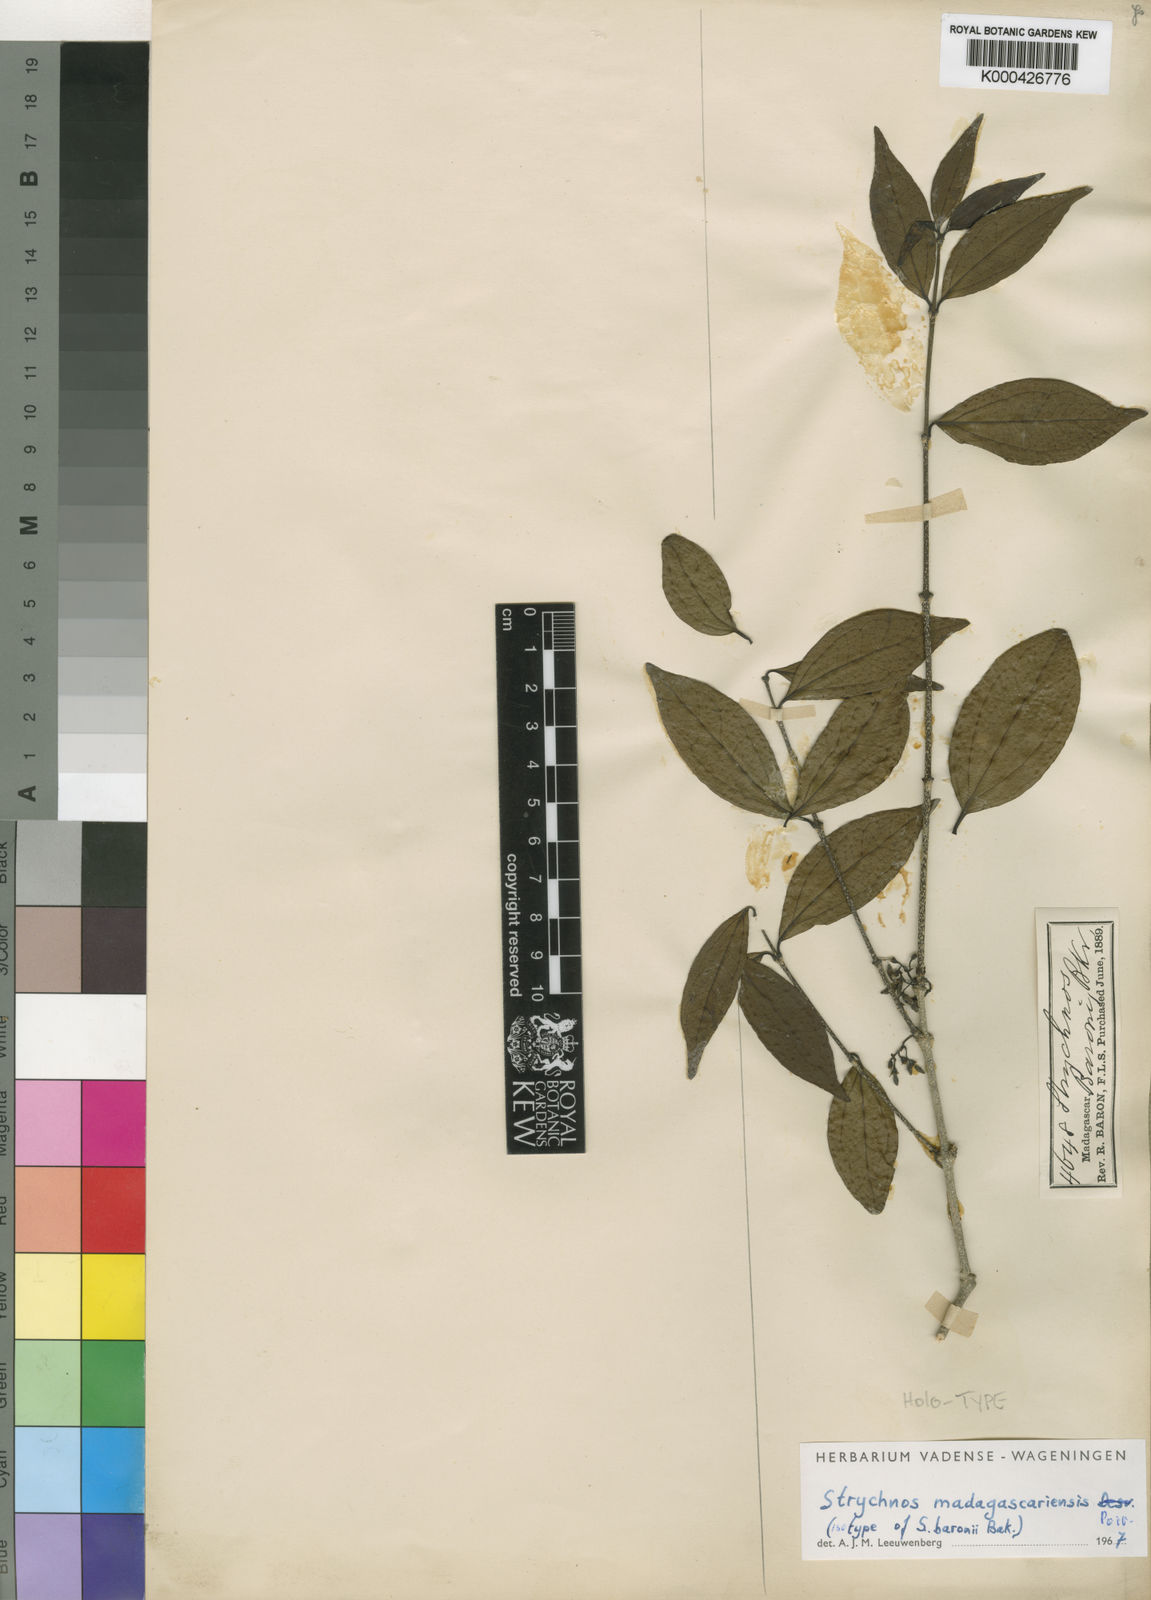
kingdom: Plantae
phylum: Tracheophyta
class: Magnoliopsida
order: Gentianales
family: Loganiaceae
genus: Strychnos
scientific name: Strychnos madagascariensis
